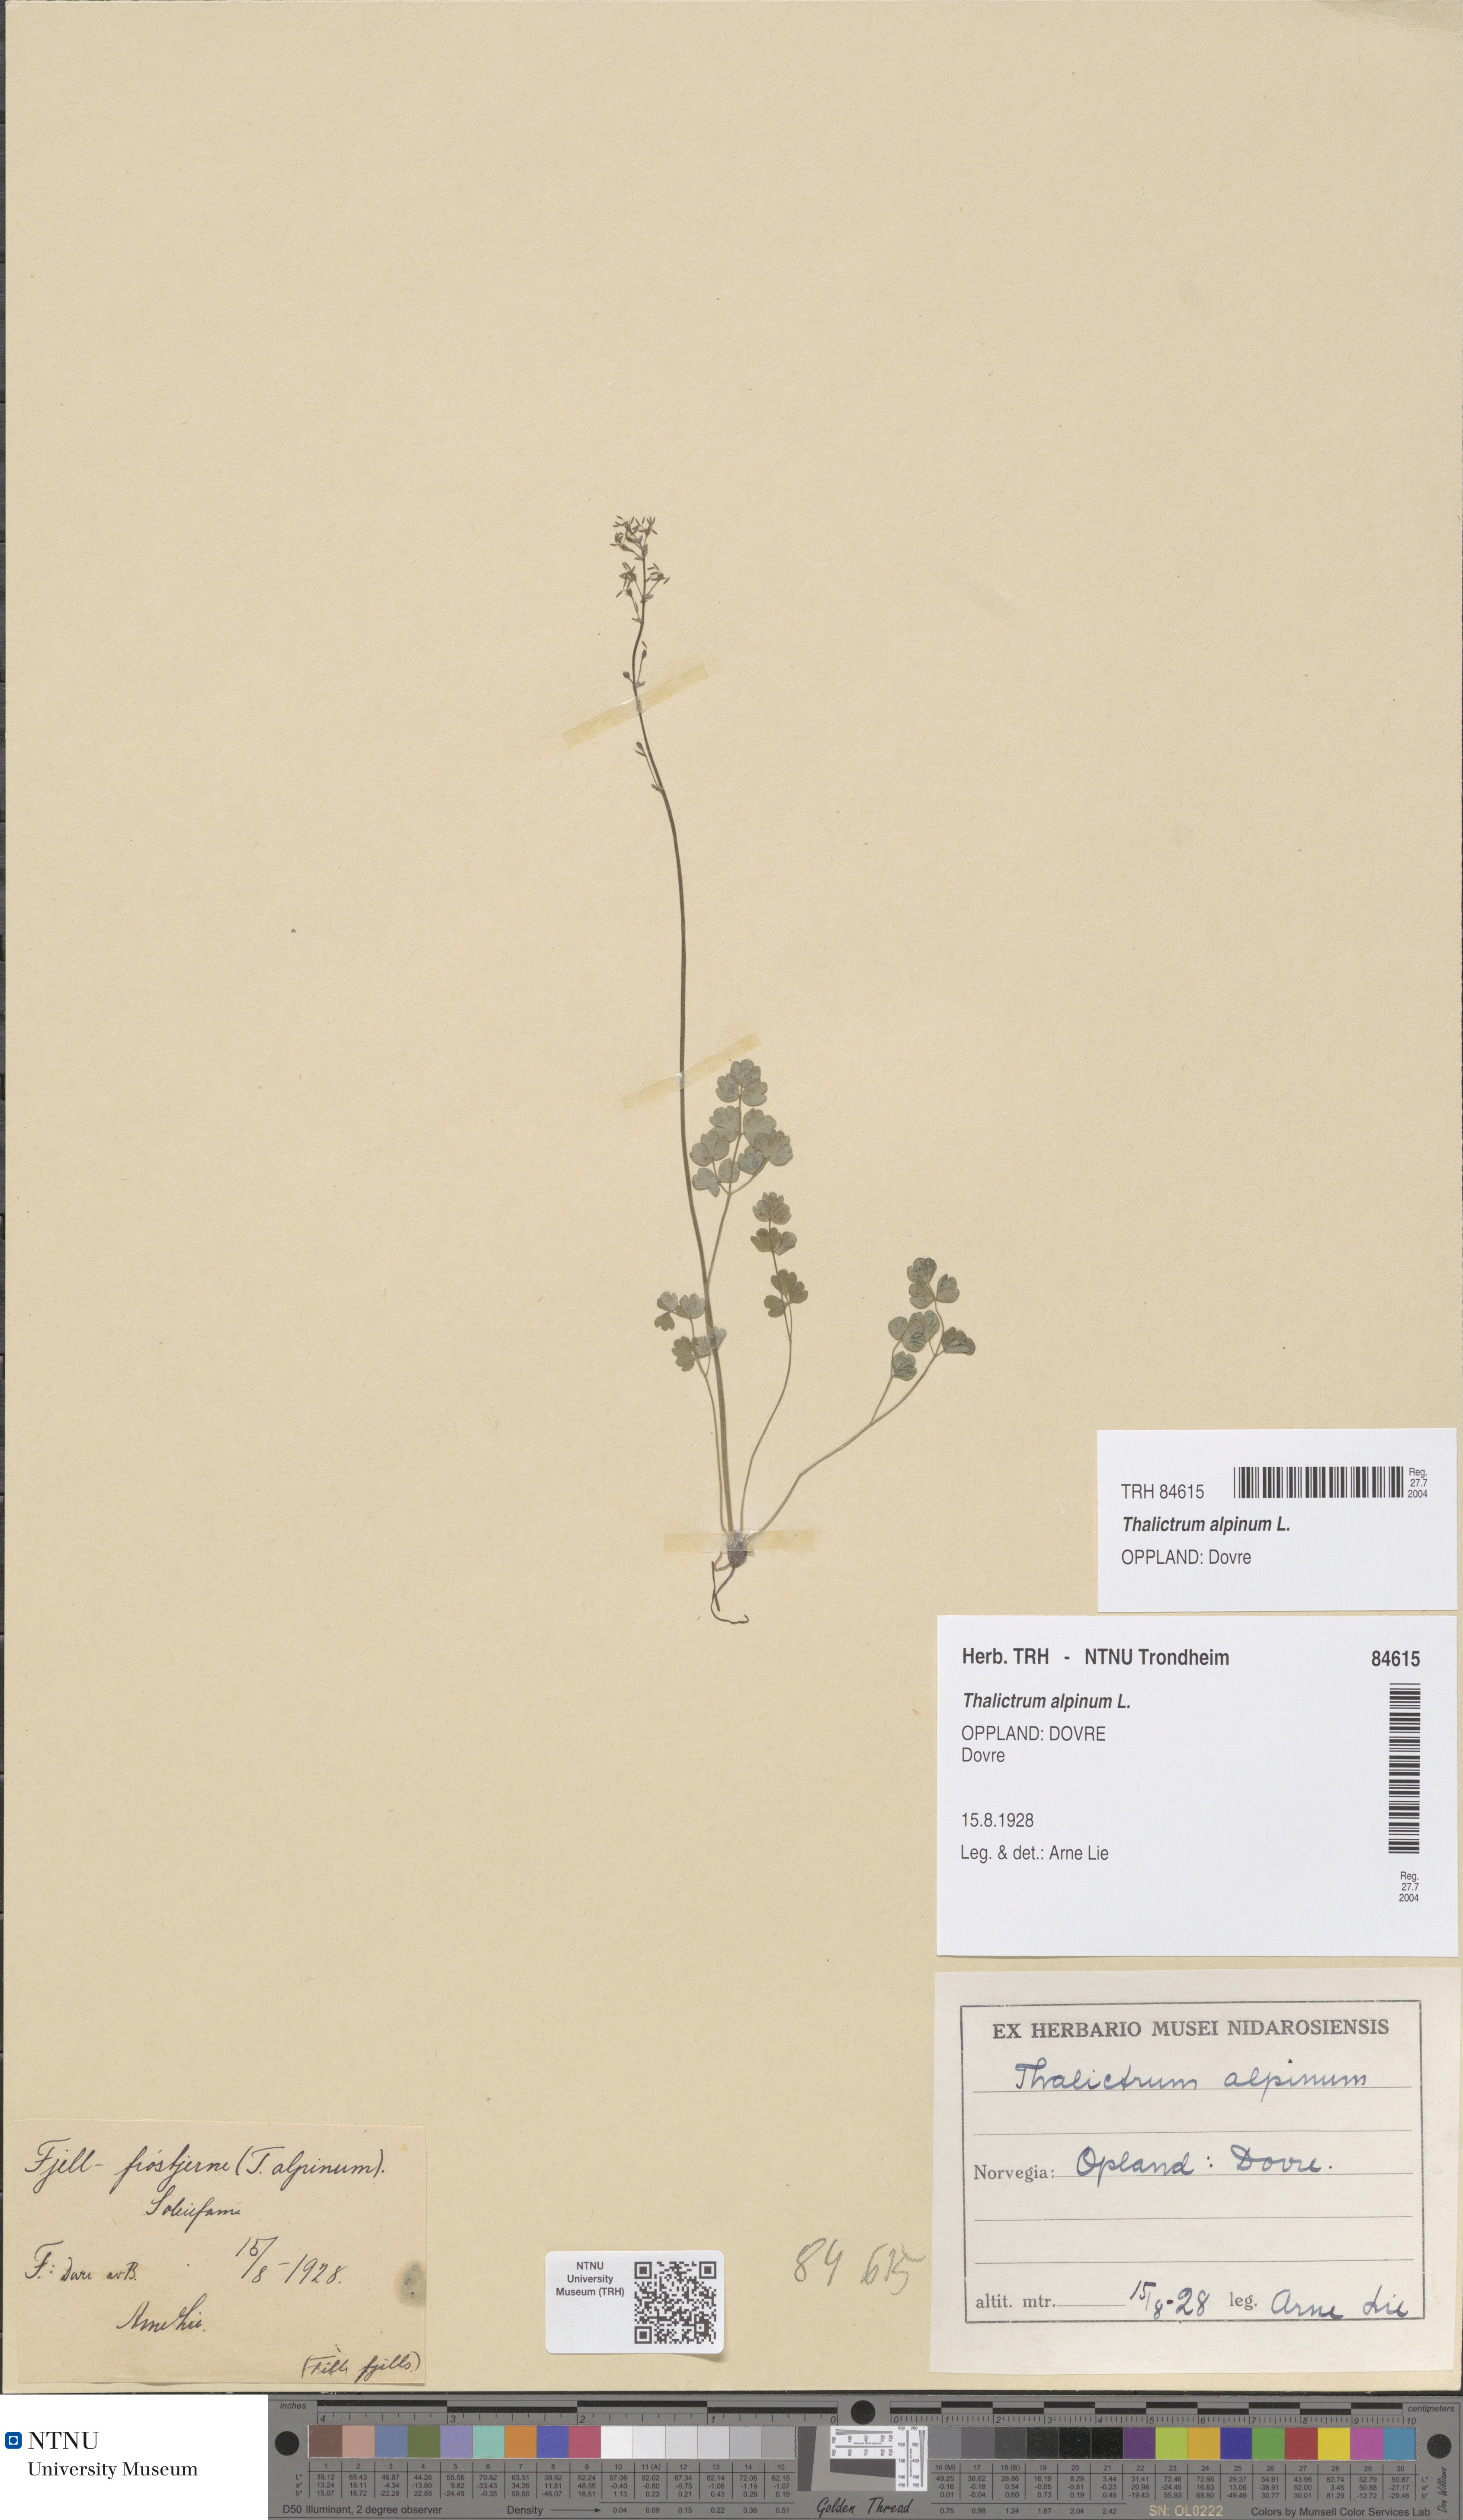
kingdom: Plantae
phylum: Tracheophyta
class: Magnoliopsida
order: Ranunculales
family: Ranunculaceae
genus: Thalictrum
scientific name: Thalictrum alpinum
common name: Alpine meadow-rue
